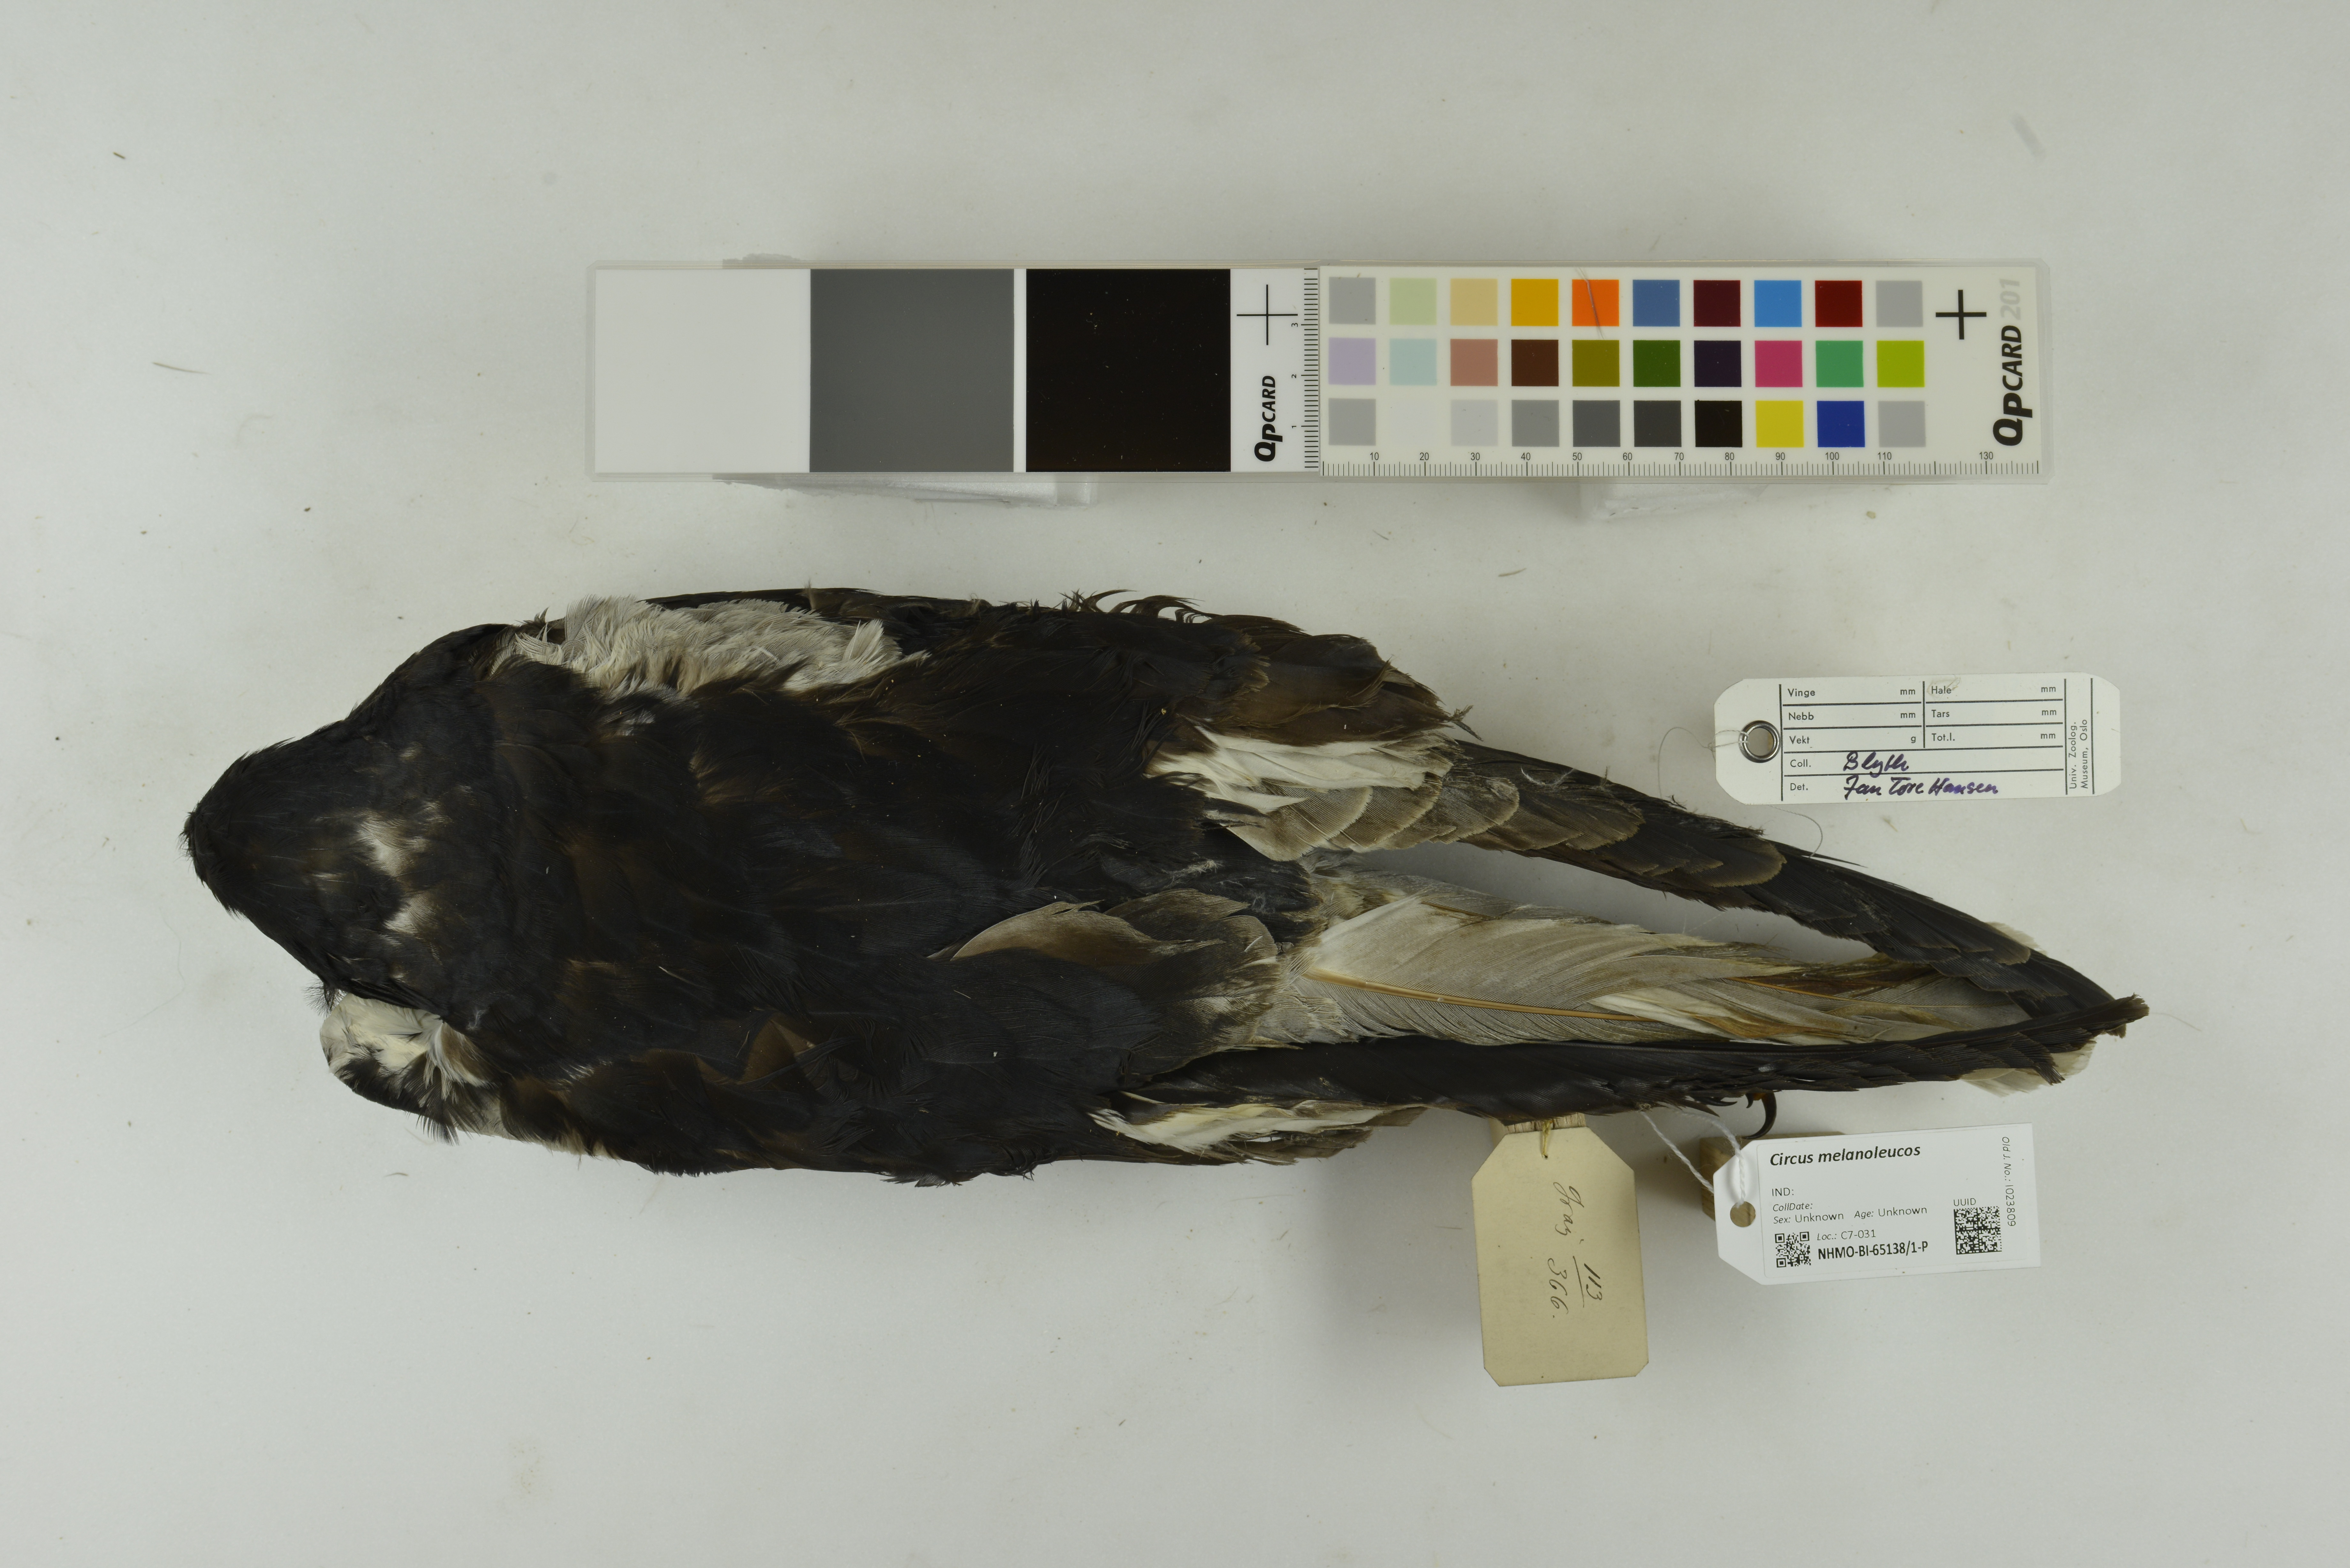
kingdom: Animalia
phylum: Chordata
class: Aves
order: Accipitriformes
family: Accipitridae
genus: Circus
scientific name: Circus melanoleucos
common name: Pied harrier
